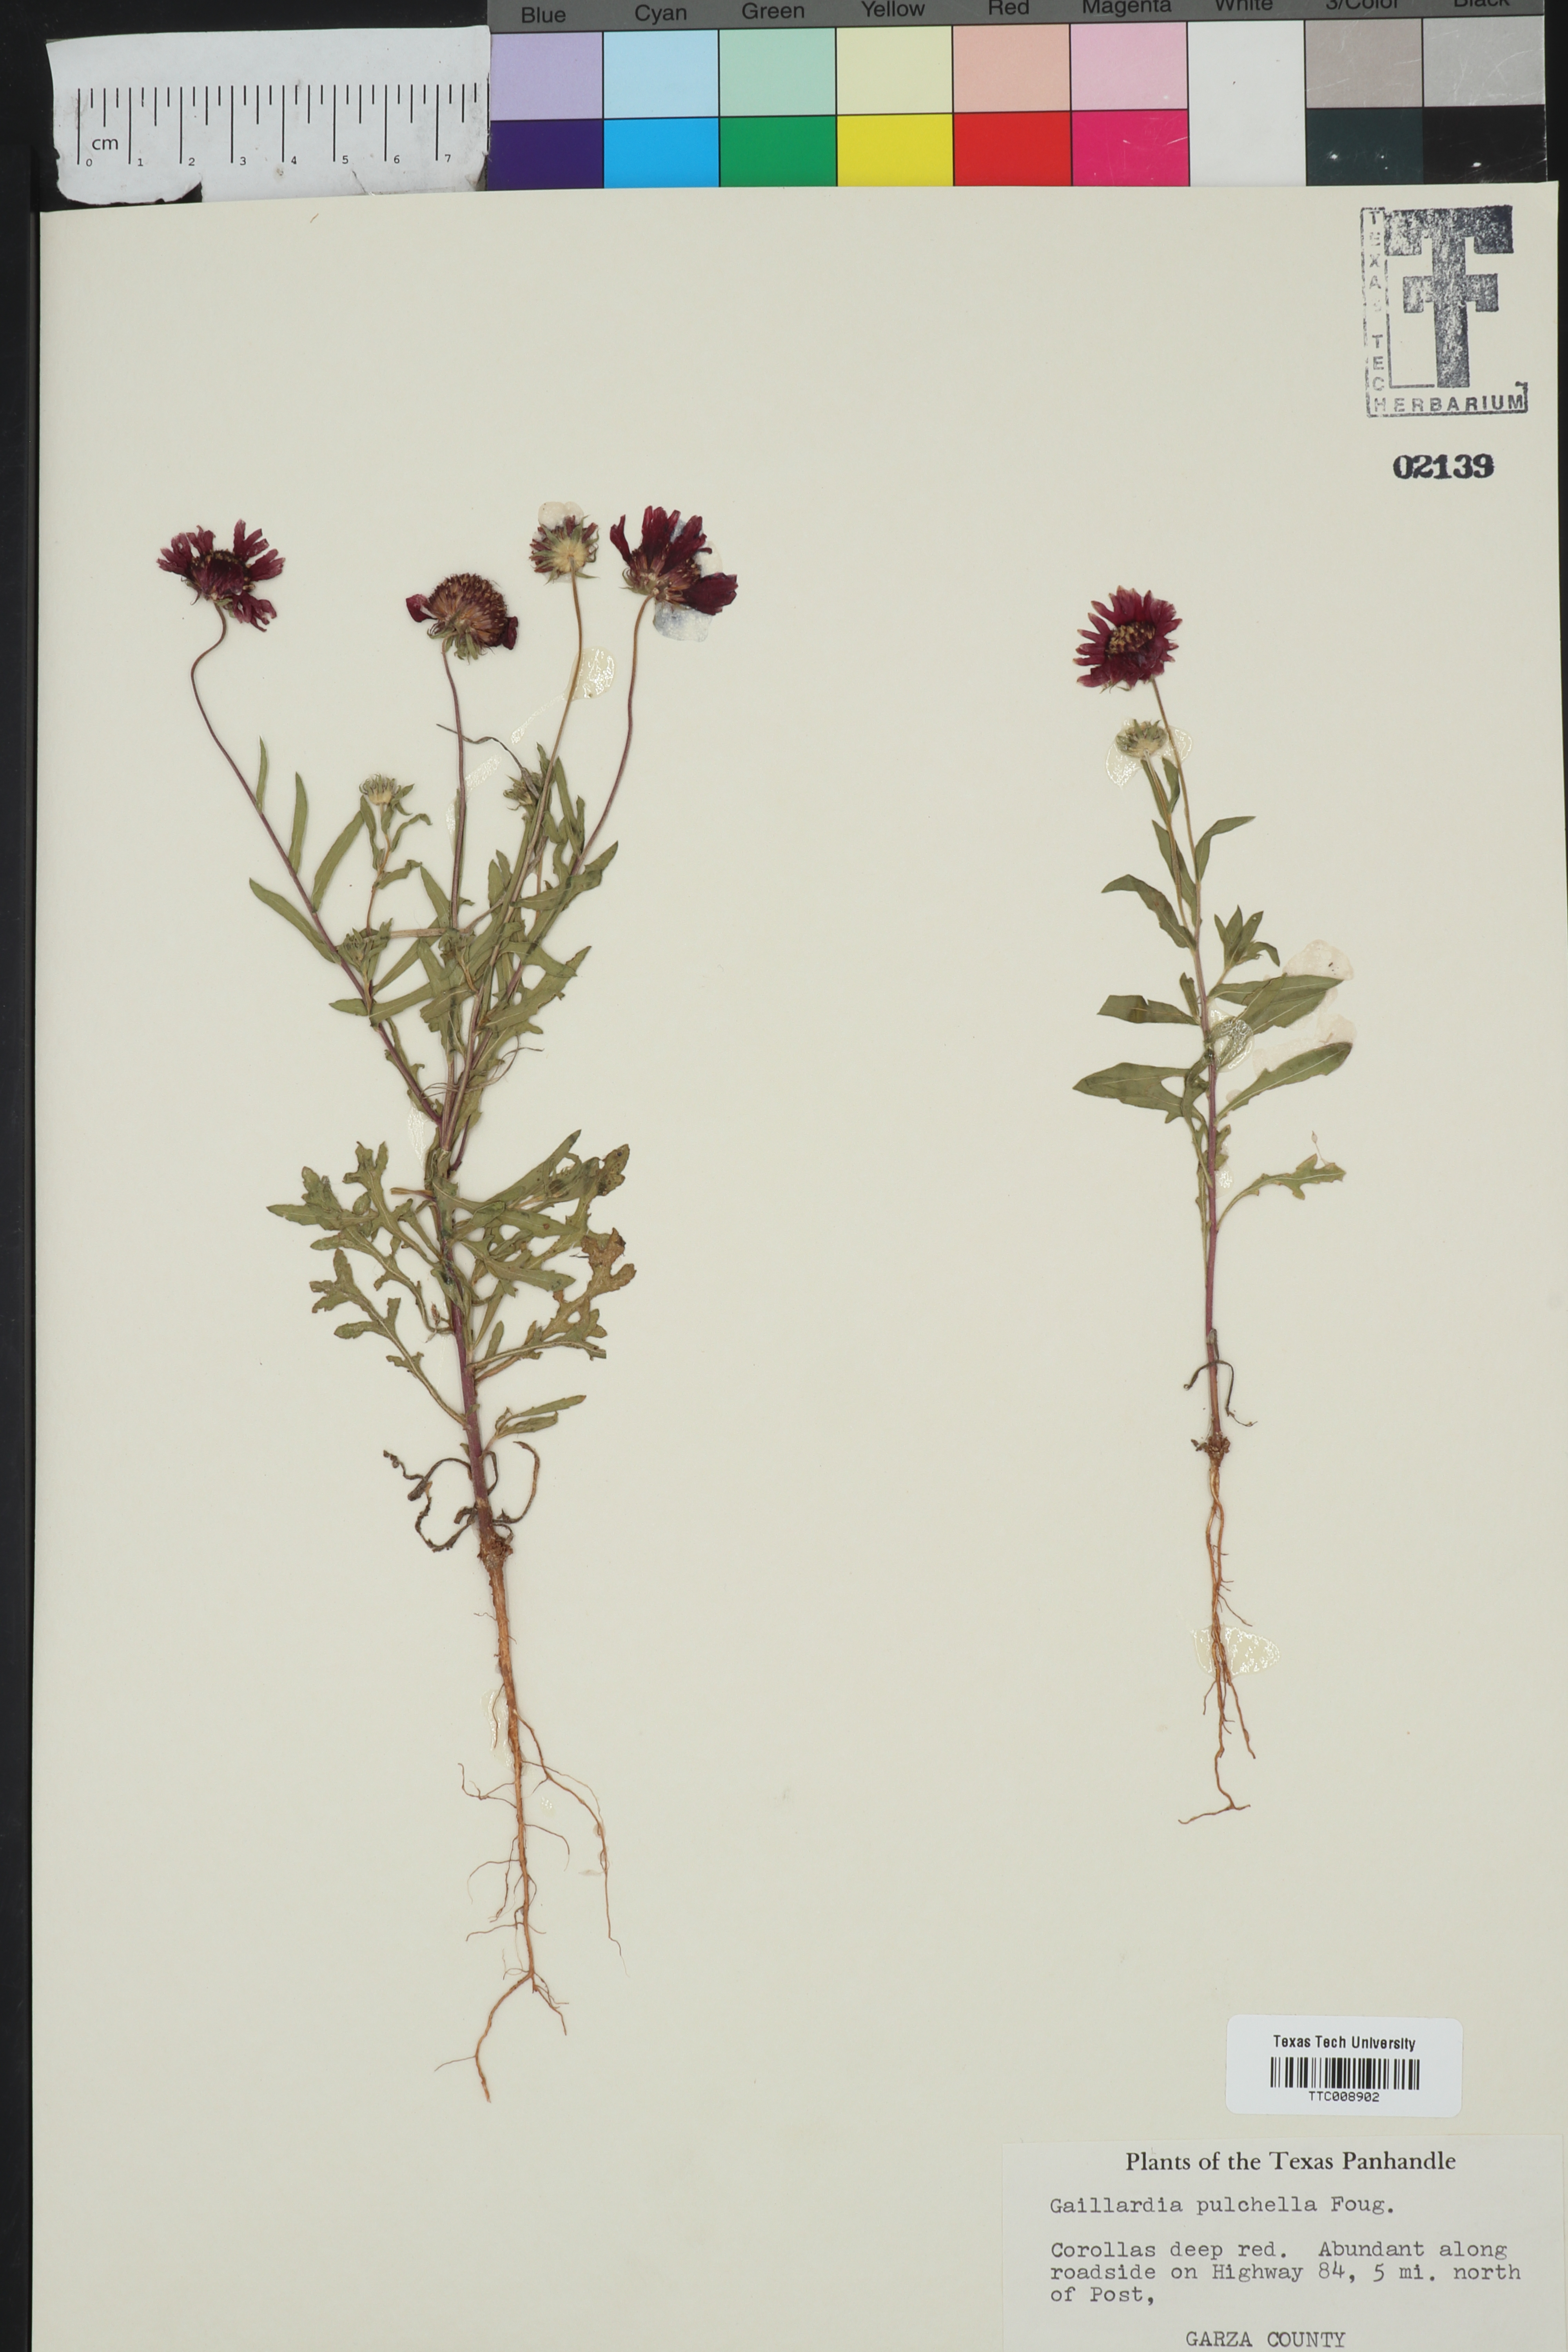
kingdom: Plantae
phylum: Tracheophyta
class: Magnoliopsida
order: Asterales
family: Asteraceae
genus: Gaillardia
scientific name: Gaillardia pulchella
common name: Firewheel
